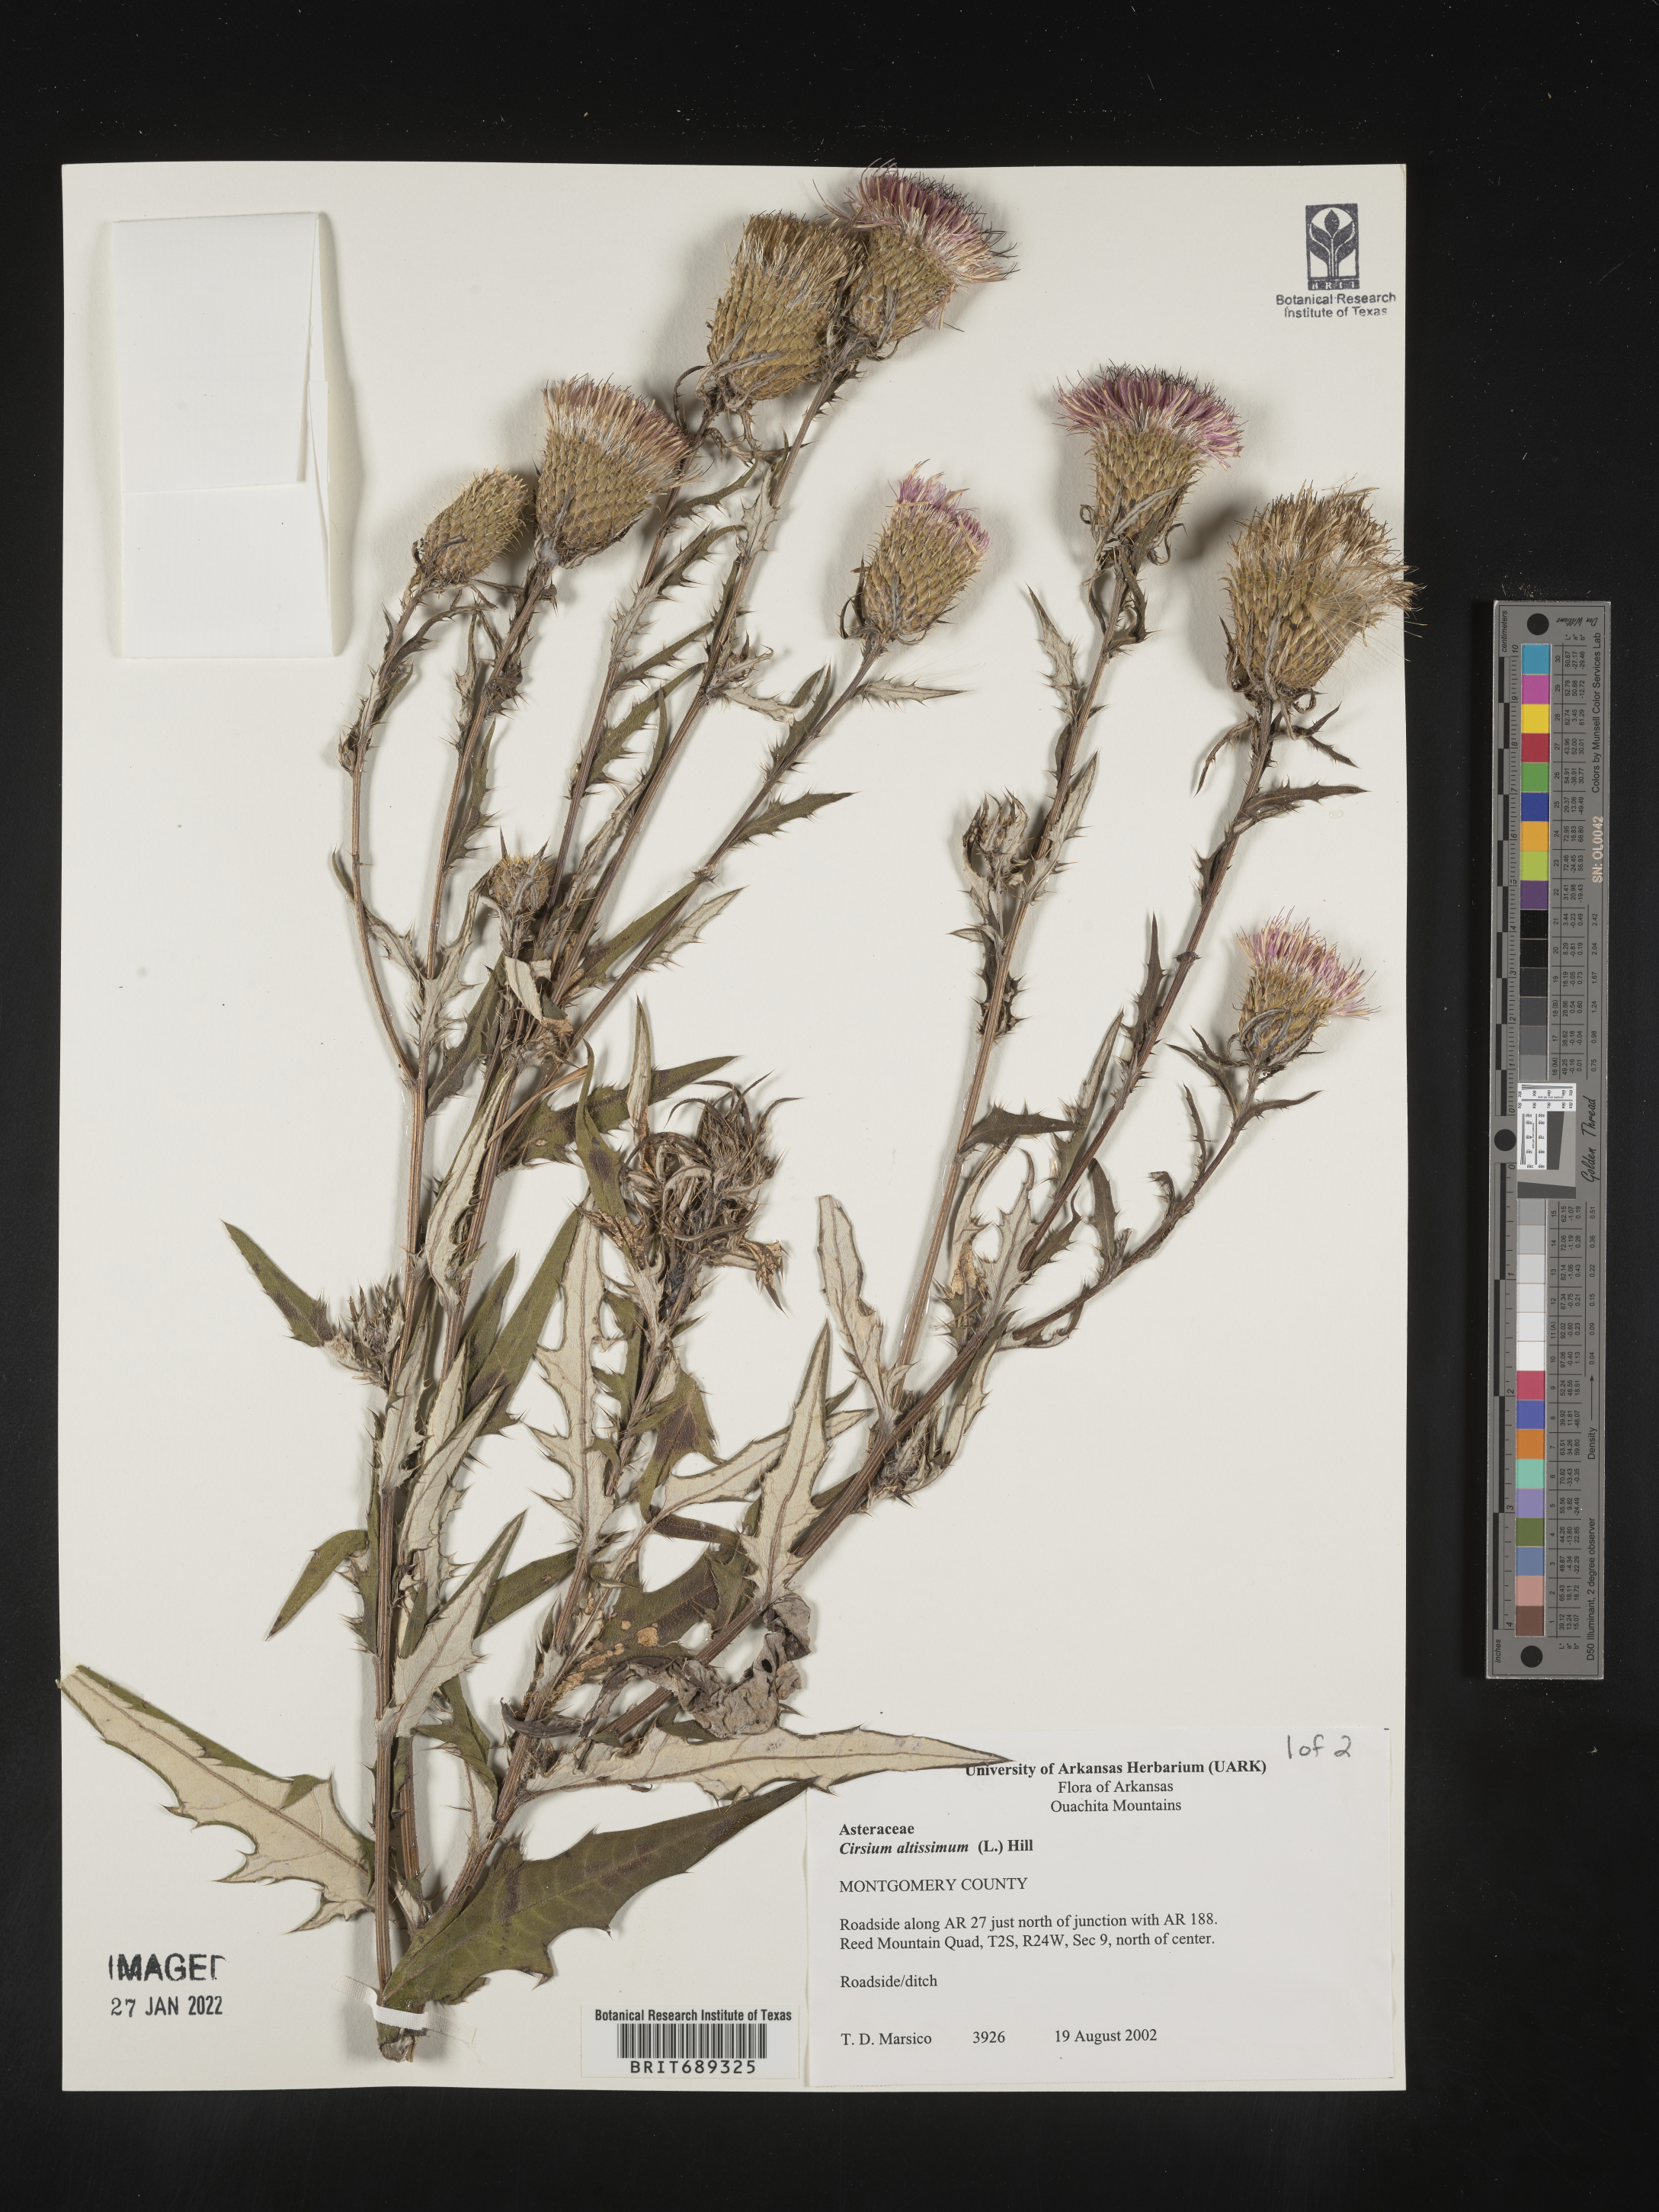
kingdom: Plantae
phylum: Tracheophyta
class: Magnoliopsida
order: Asterales
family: Asteraceae
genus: Cirsium
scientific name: Cirsium altissimum
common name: Roadside thistle
